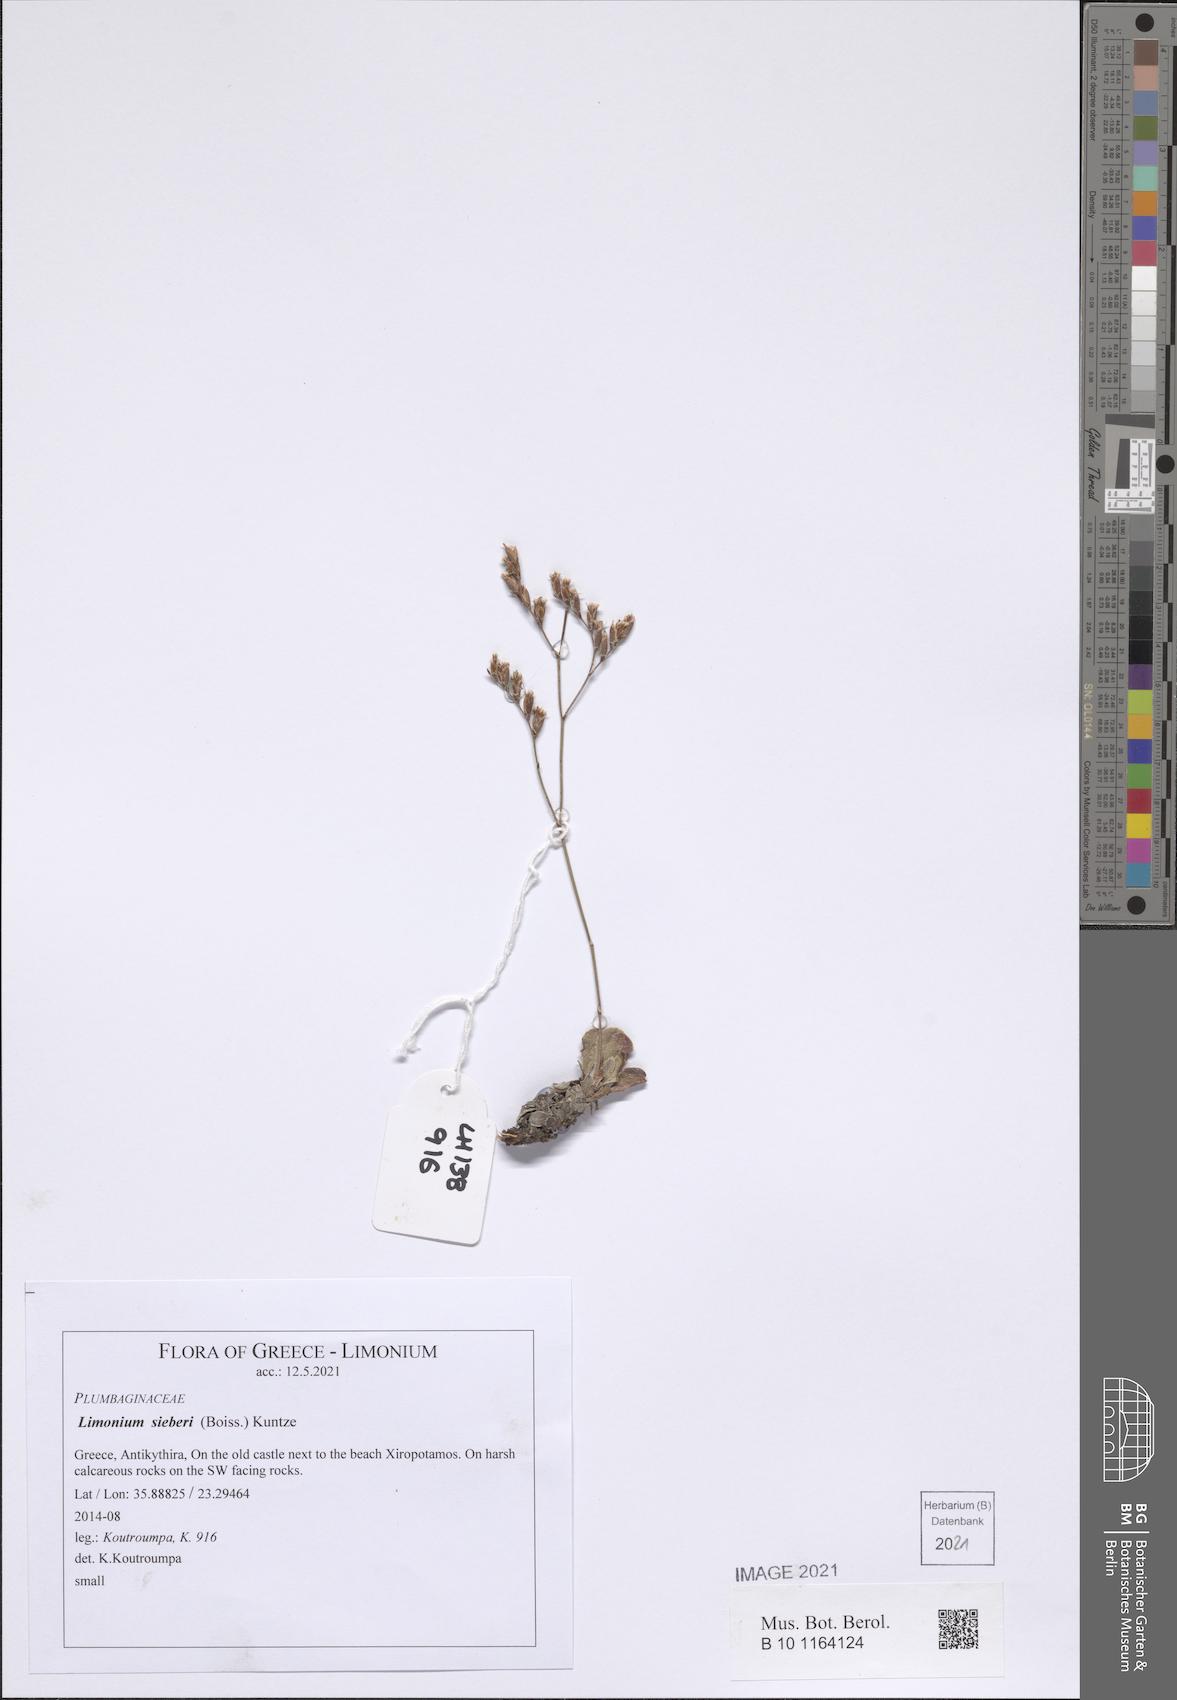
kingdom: Plantae
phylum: Tracheophyta
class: Magnoliopsida
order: Caryophyllales
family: Plumbaginaceae
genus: Limonium
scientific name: Limonium sieberi
